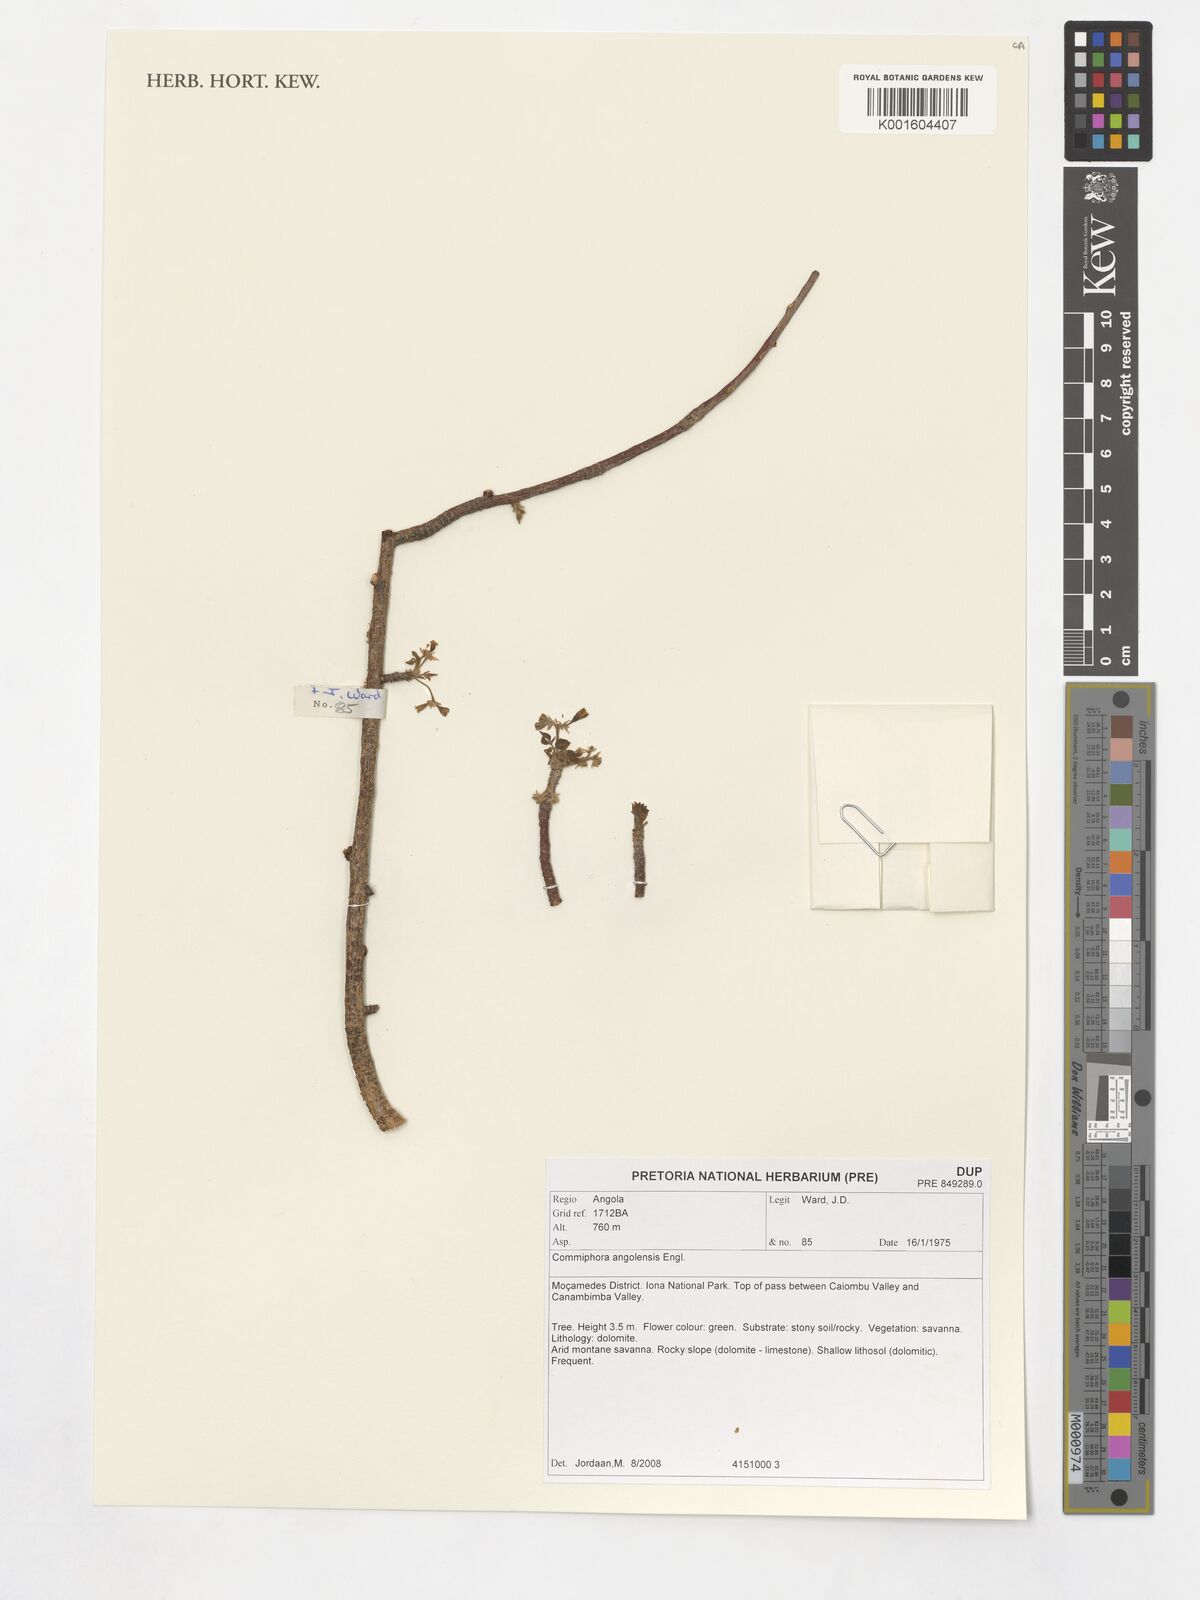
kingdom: Plantae
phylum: Tracheophyta
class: Magnoliopsida
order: Sapindales
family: Burseraceae
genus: Commiphora
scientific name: Commiphora angolensis
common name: Poison-grub
